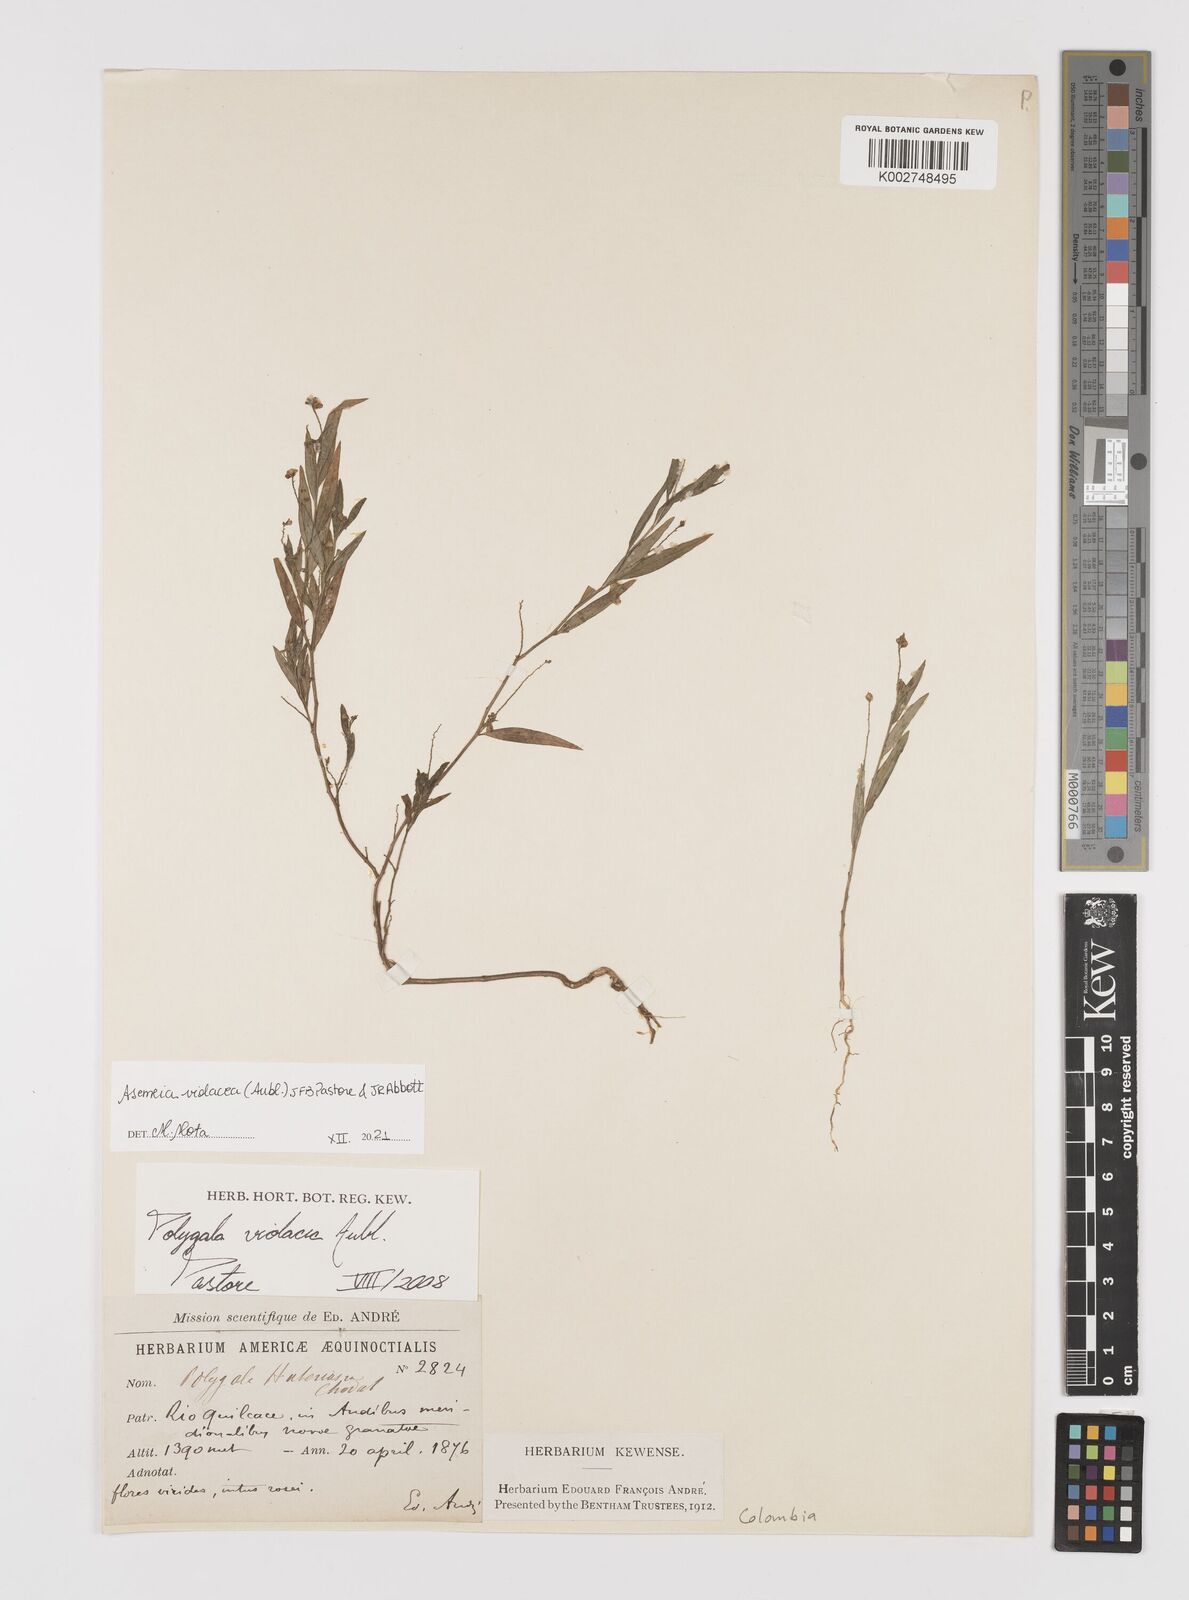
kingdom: Plantae
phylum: Tracheophyta
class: Magnoliopsida
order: Fabales
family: Polygalaceae
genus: Asemeia
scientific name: Asemeia violacea
